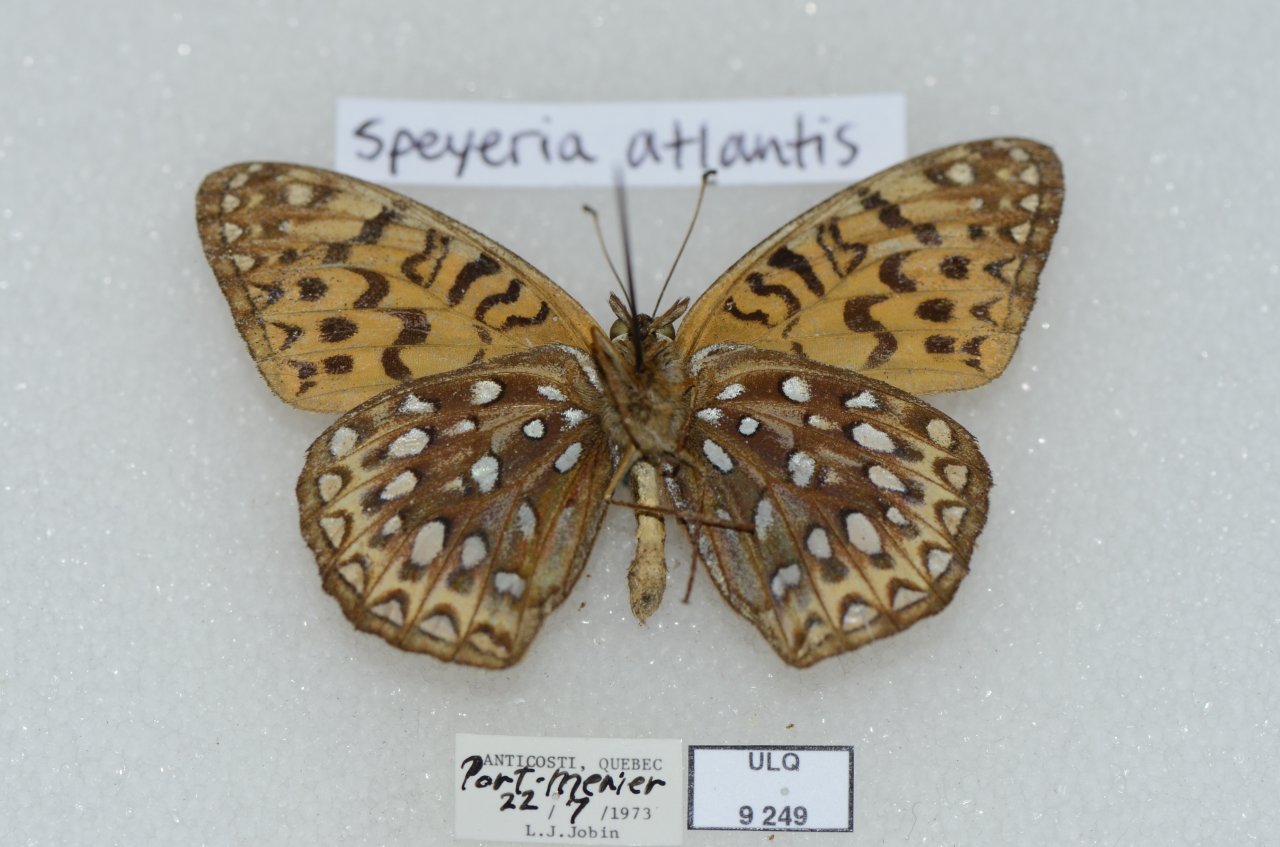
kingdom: Animalia
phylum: Arthropoda
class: Insecta
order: Lepidoptera
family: Nymphalidae
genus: Speyeria
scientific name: Speyeria atlantis
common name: Atlantis Fritillary
